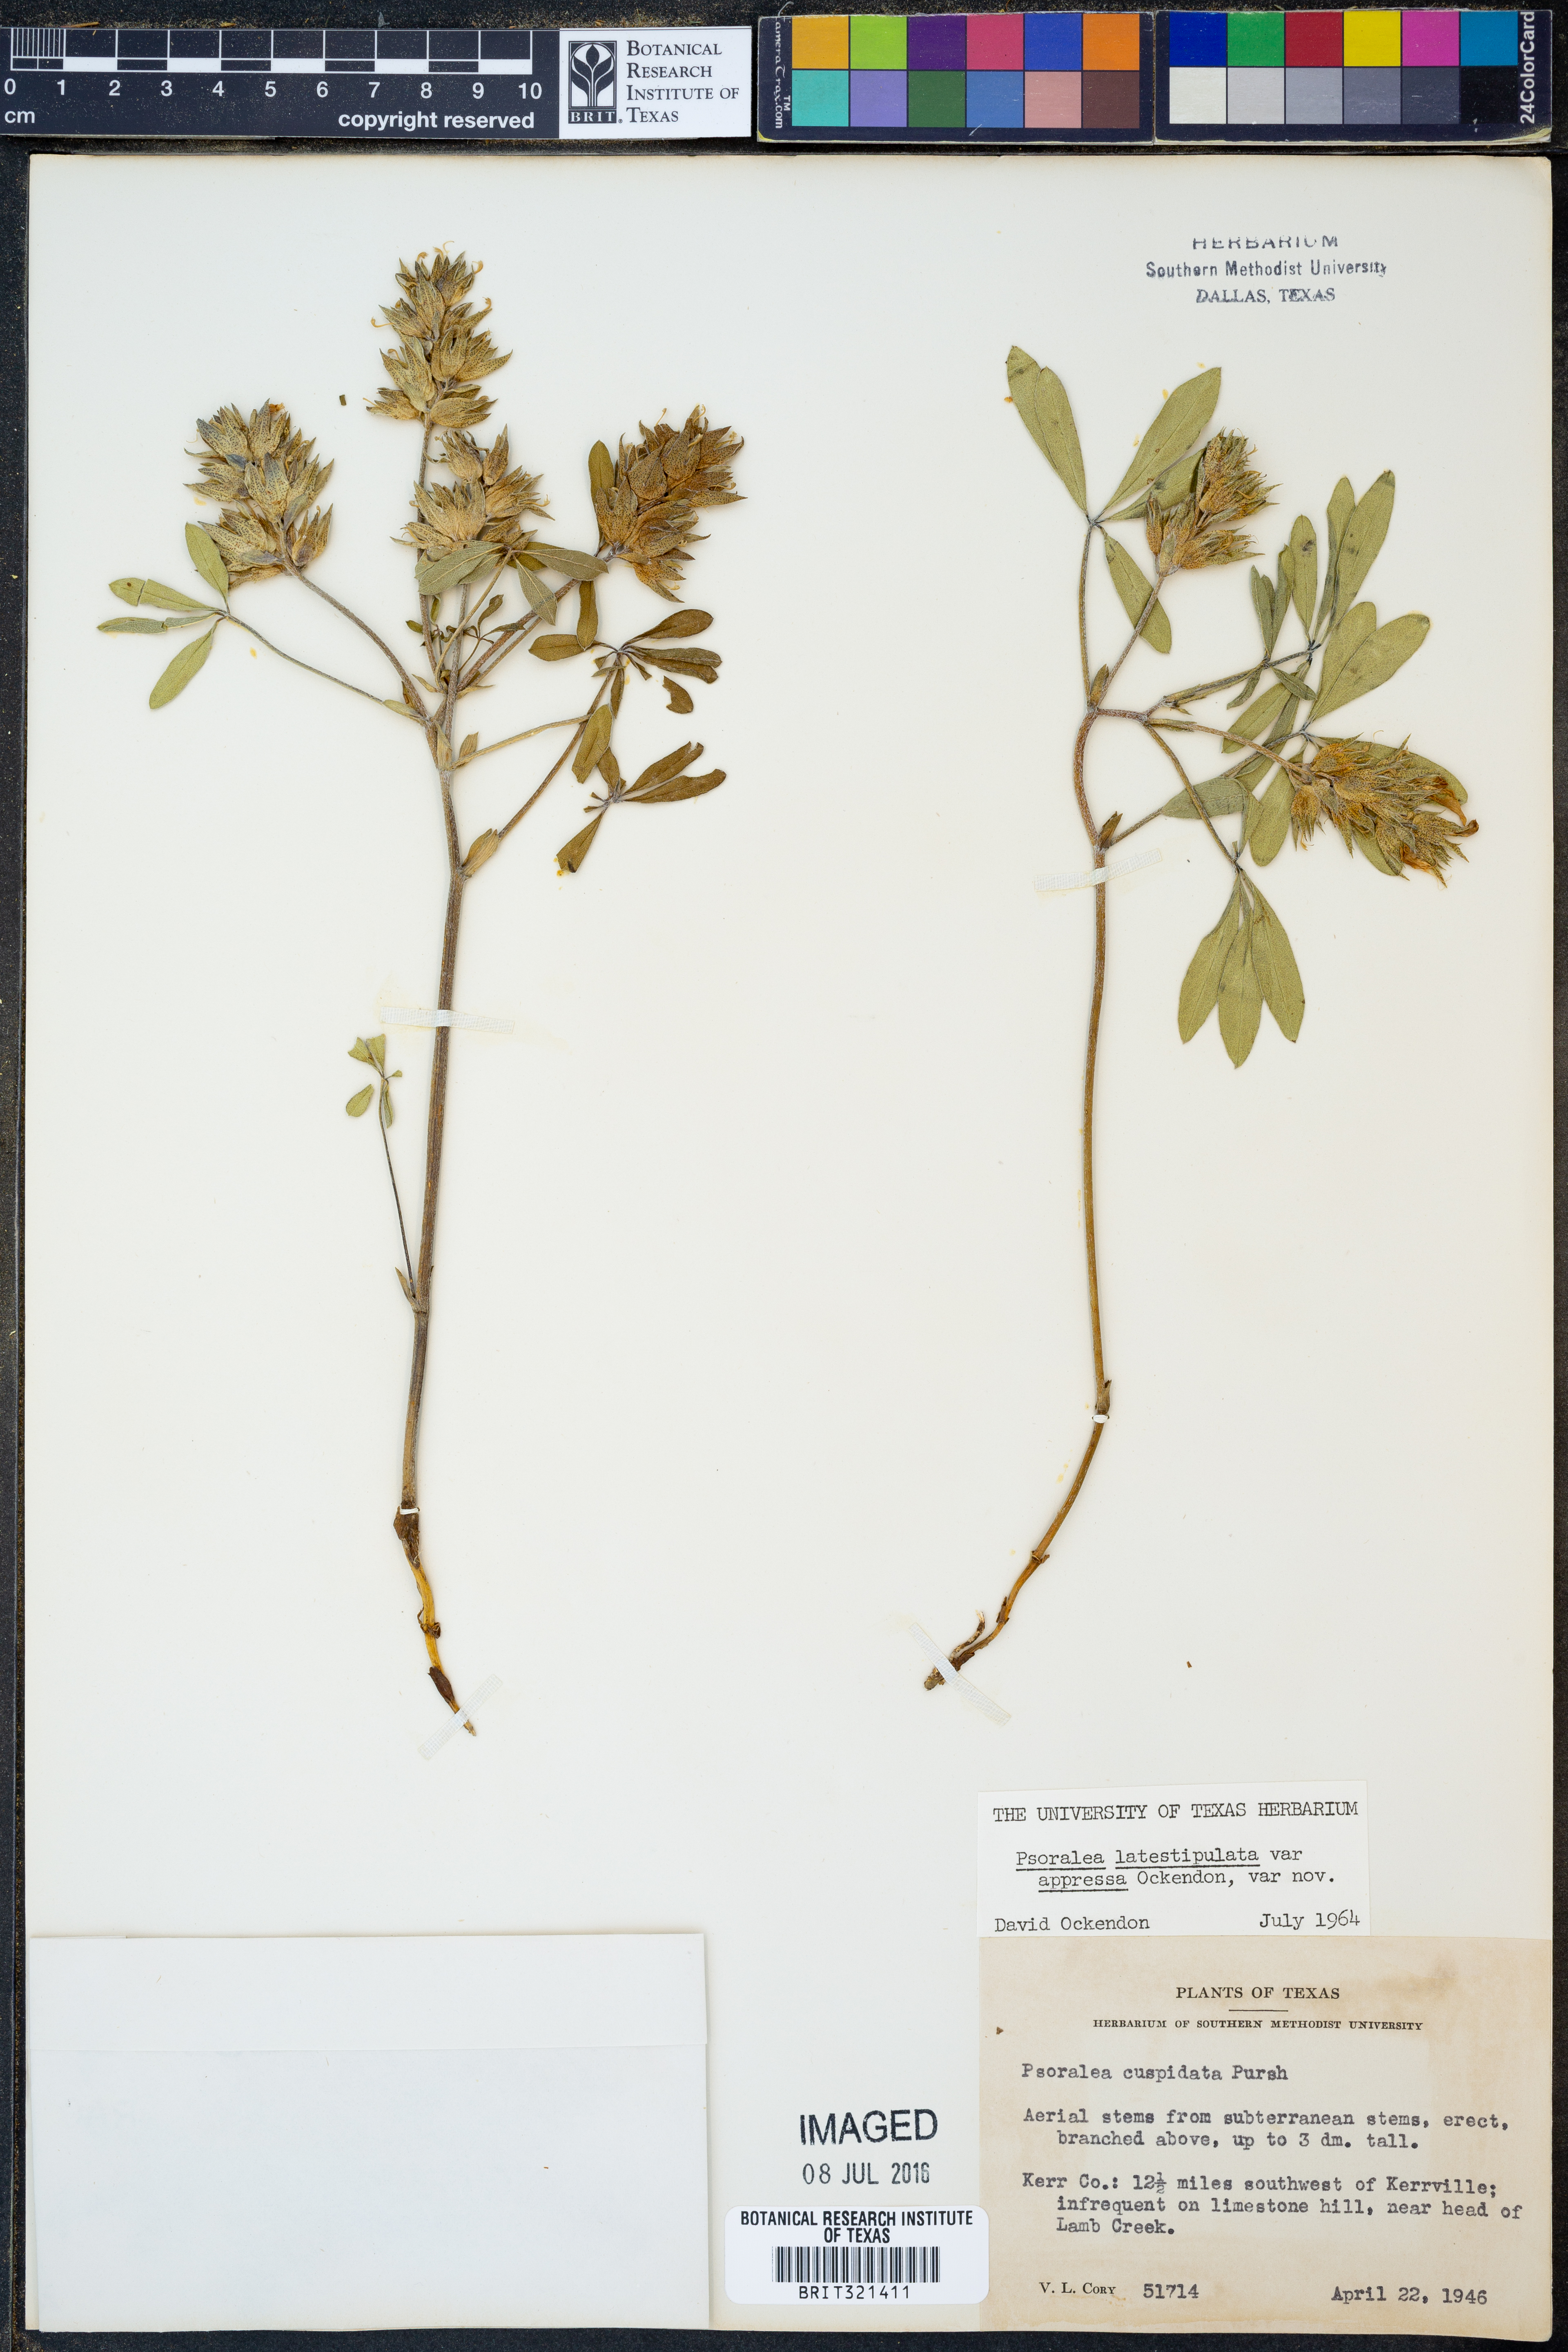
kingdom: Plantae
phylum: Tracheophyta
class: Magnoliopsida
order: Fabales
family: Fabaceae
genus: Pediomelum
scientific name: Pediomelum latestipulatum
